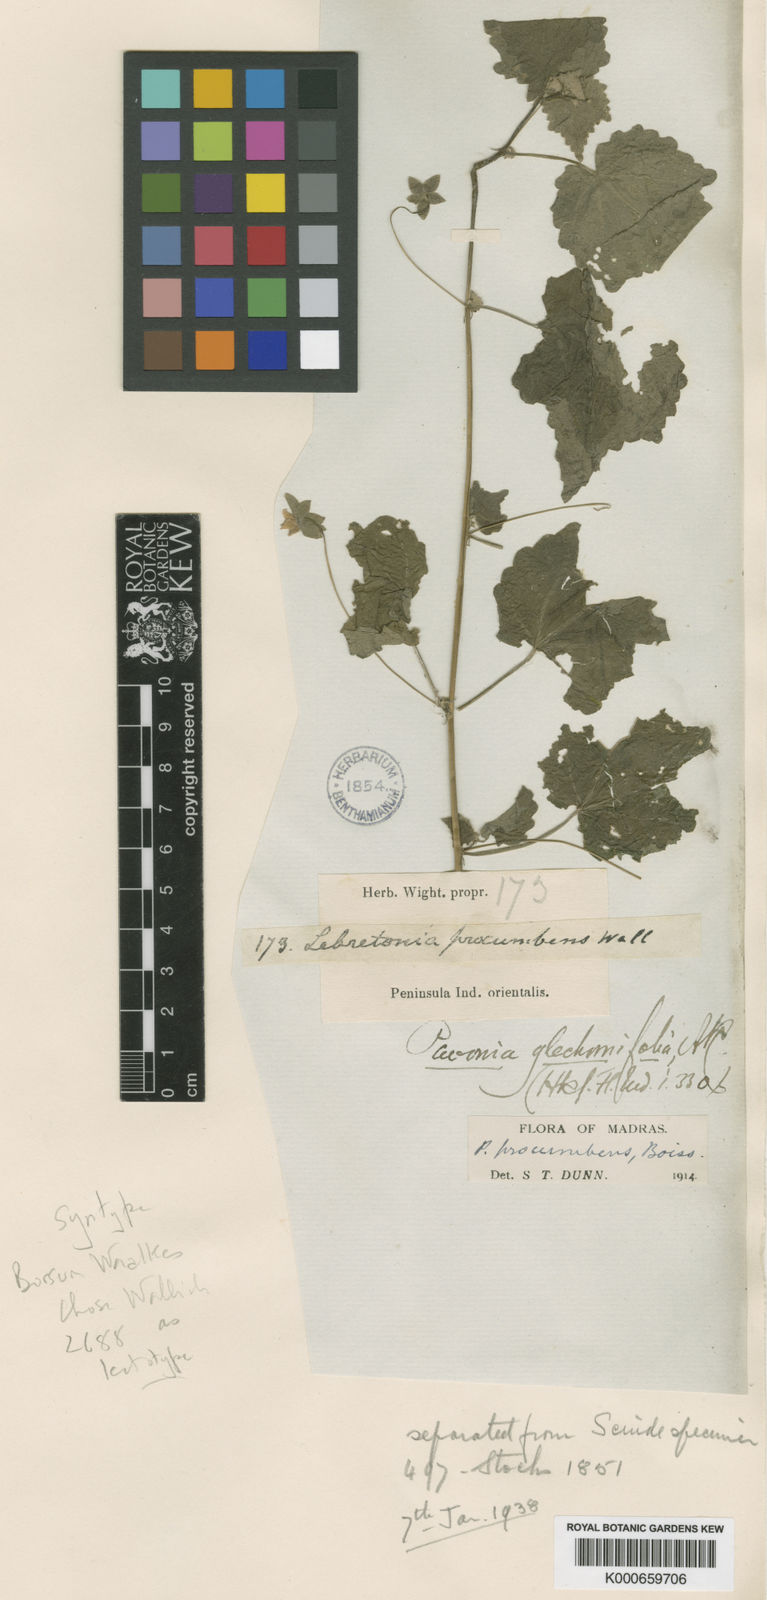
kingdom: Plantae
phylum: Tracheophyta
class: Magnoliopsida
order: Malvales
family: Malvaceae
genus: Pavonia
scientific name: Pavonia
